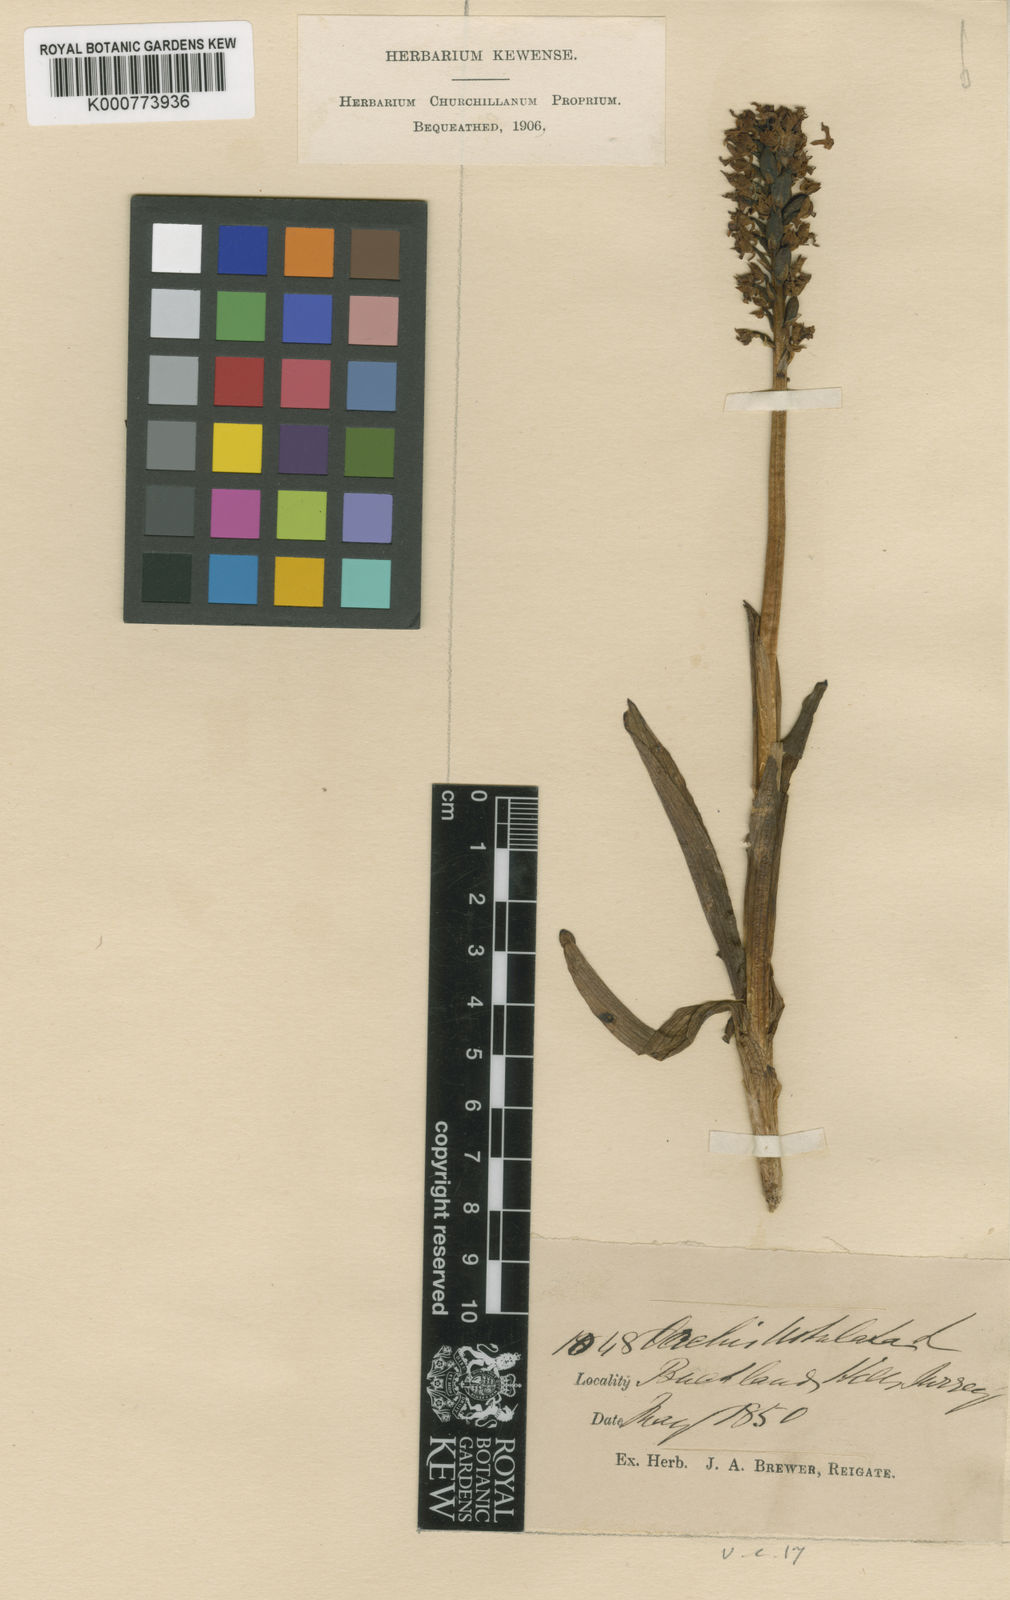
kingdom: Plantae
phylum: Tracheophyta
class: Liliopsida
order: Asparagales
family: Orchidaceae
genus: Neotinea
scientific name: Neotinea ustulata
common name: Burnt orchid
